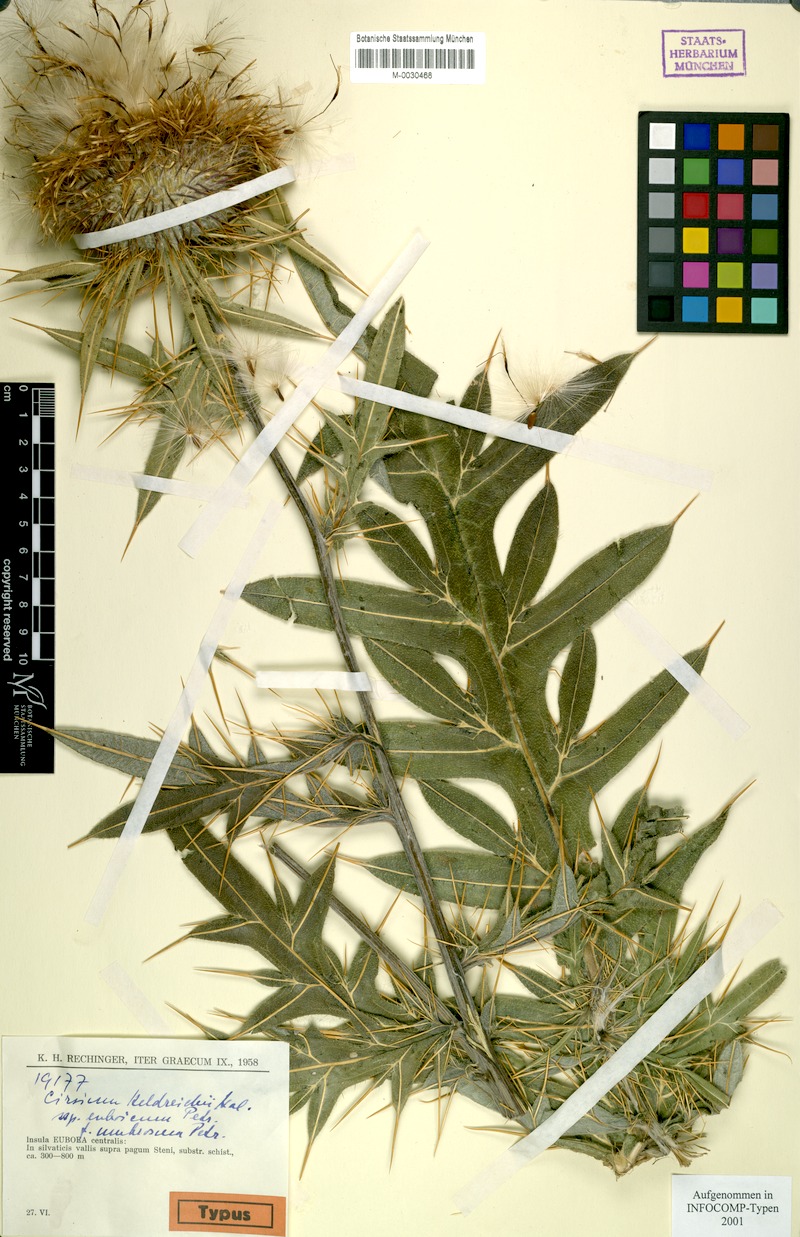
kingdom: Plantae
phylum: Tracheophyta
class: Magnoliopsida
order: Asterales
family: Asteraceae
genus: Lophiolepis
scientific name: Lophiolepis heldreichii
